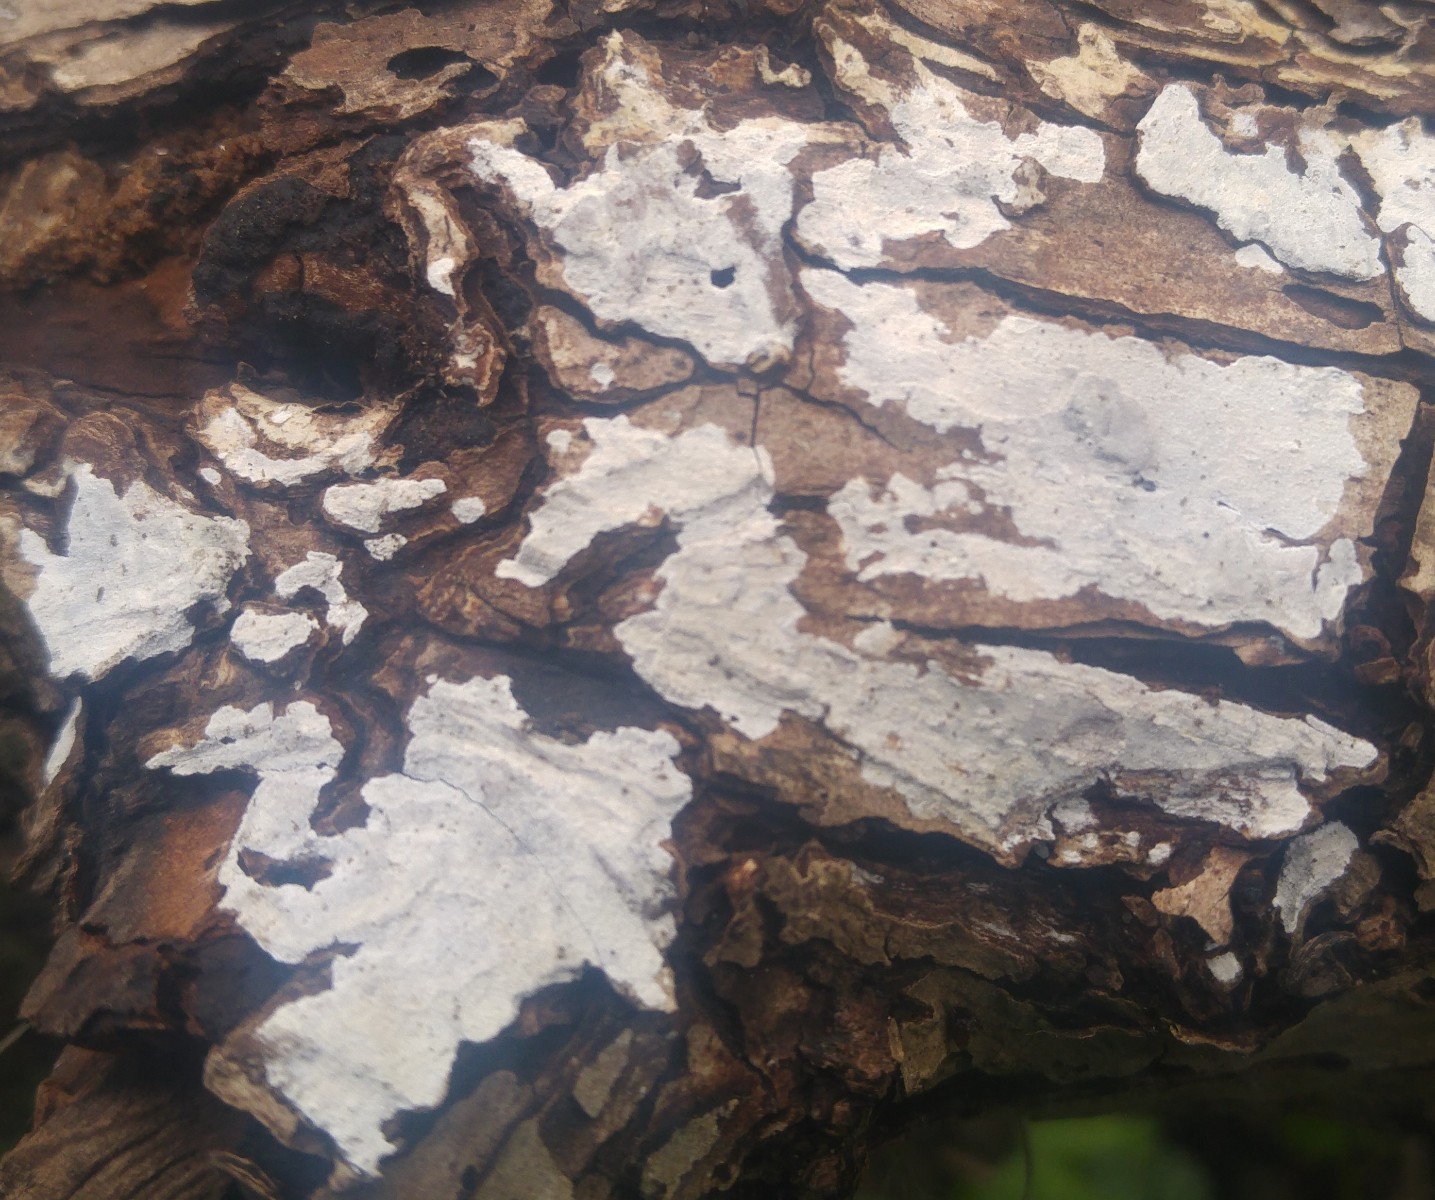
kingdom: Fungi
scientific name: Fungi
